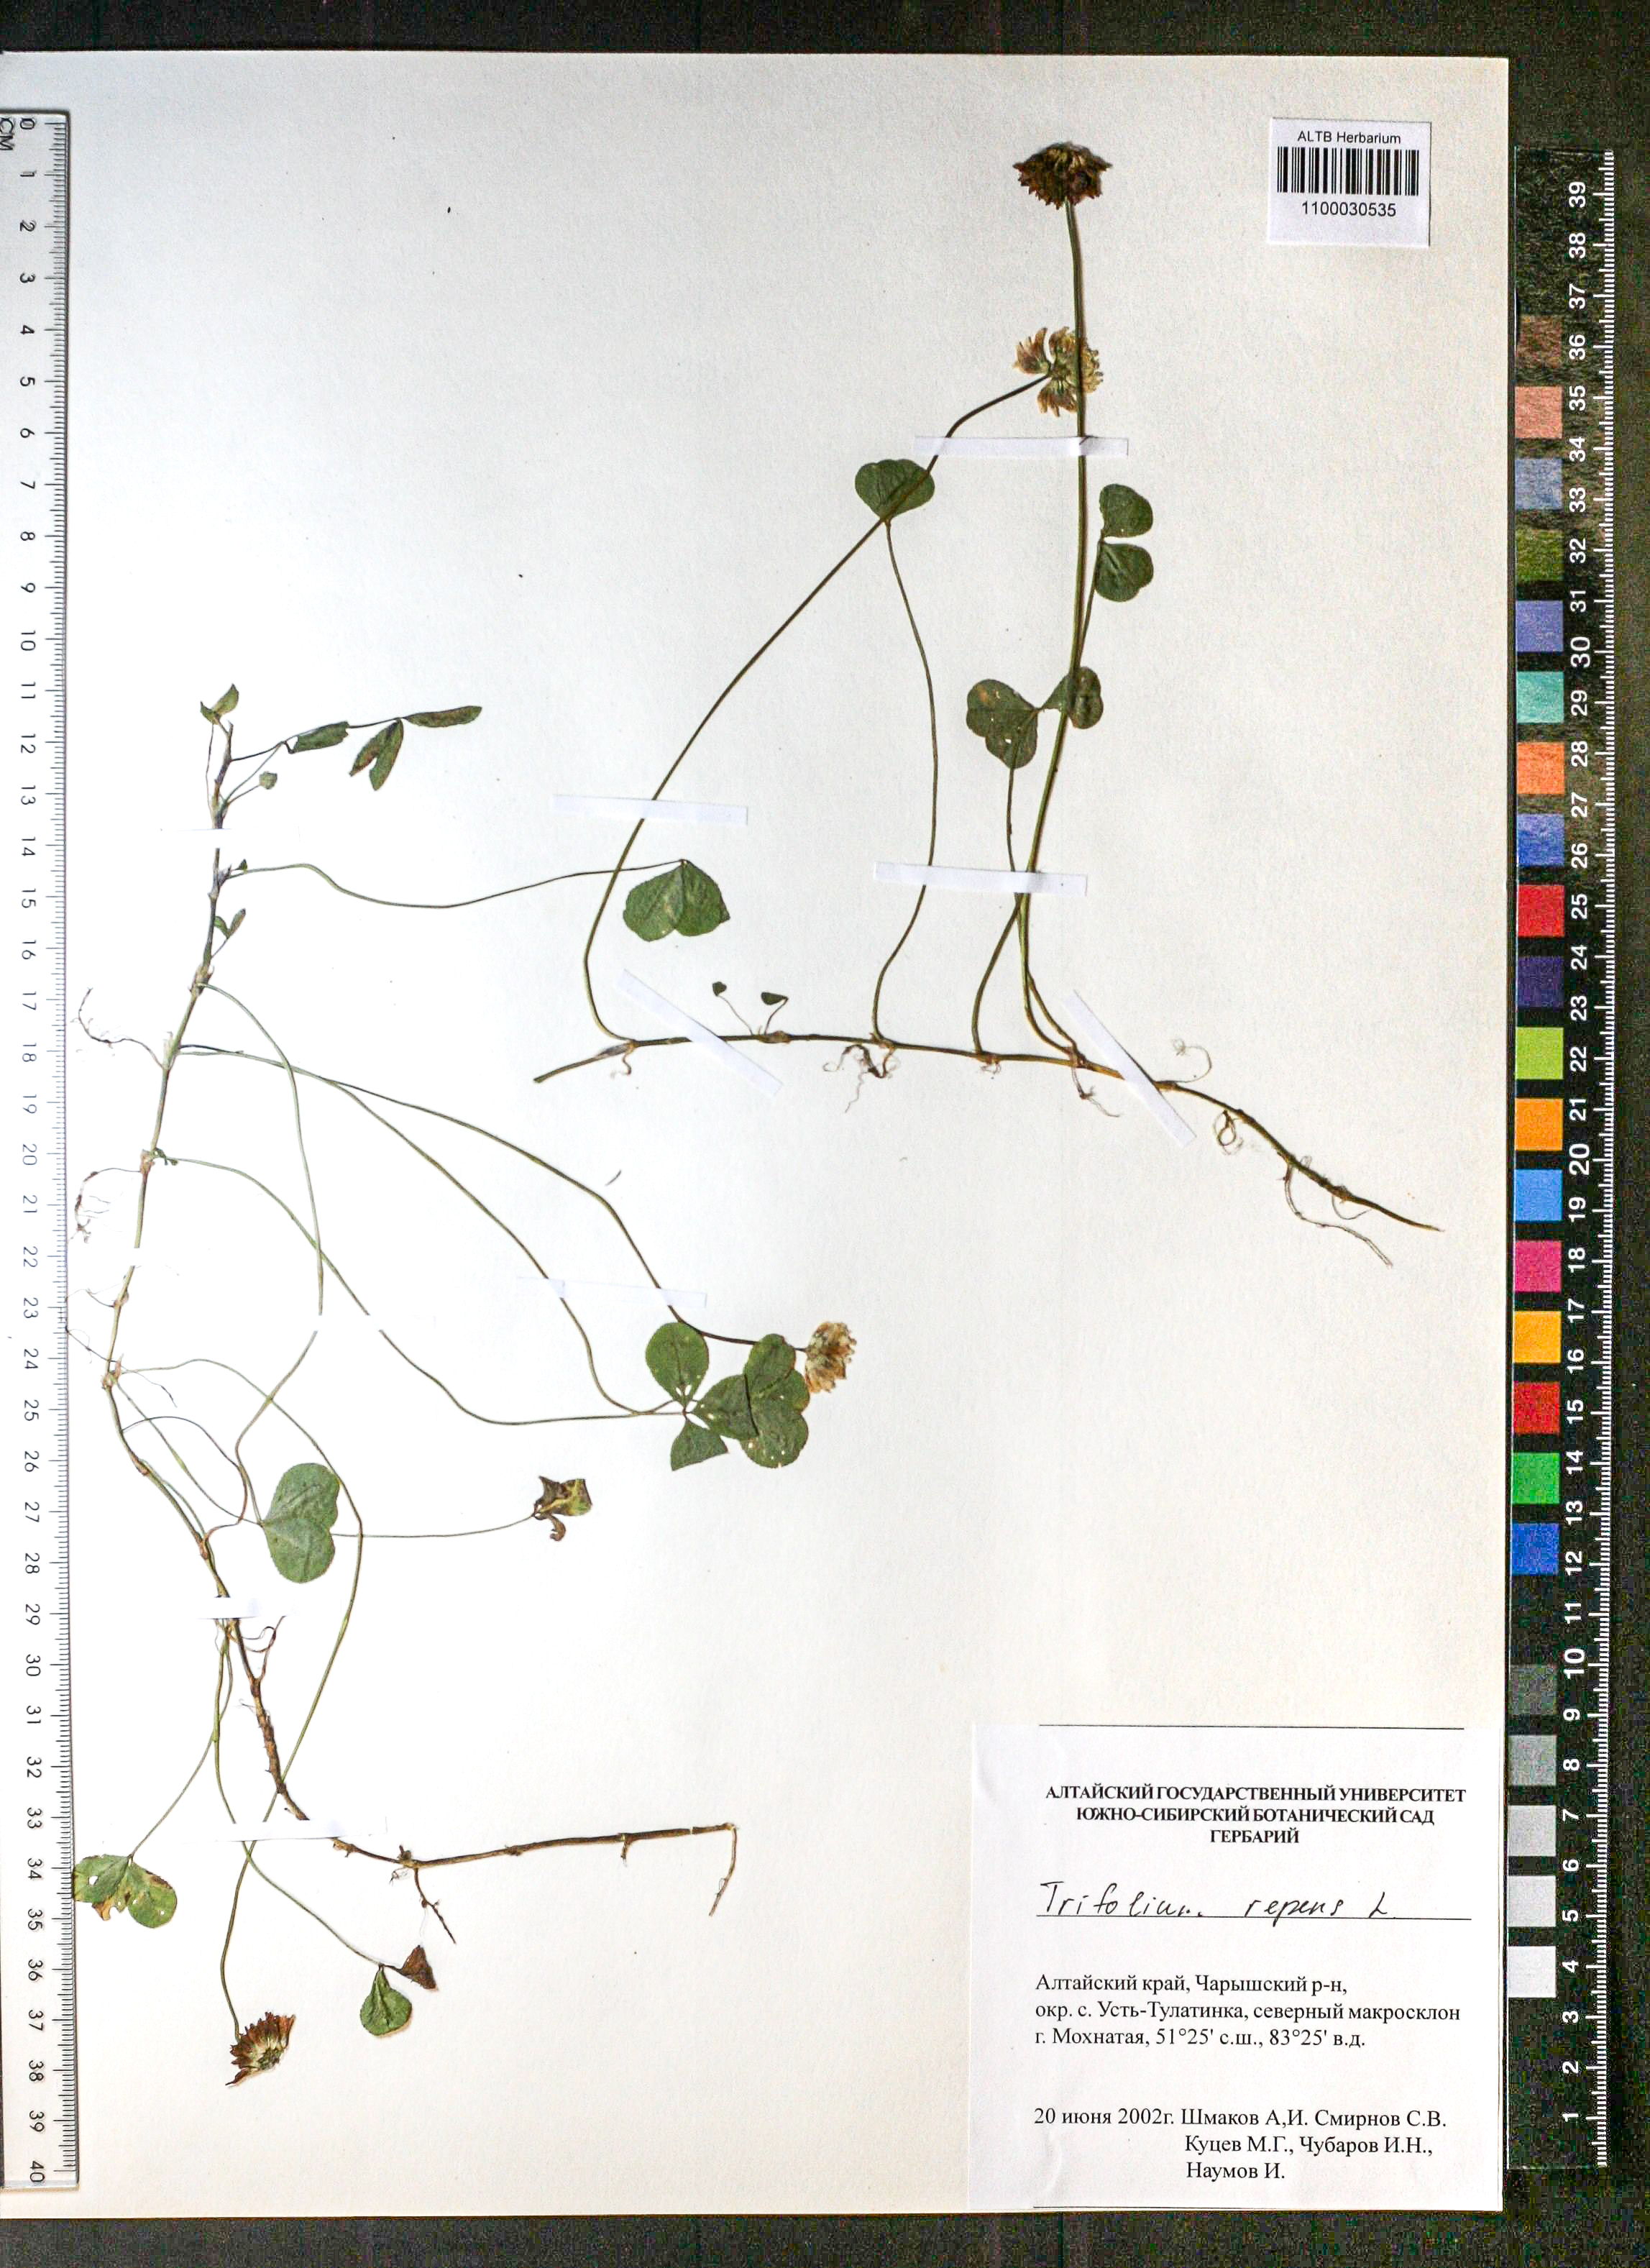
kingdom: Plantae
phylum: Tracheophyta
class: Magnoliopsida
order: Fabales
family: Fabaceae
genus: Trifolium
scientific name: Trifolium repens
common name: White clover
